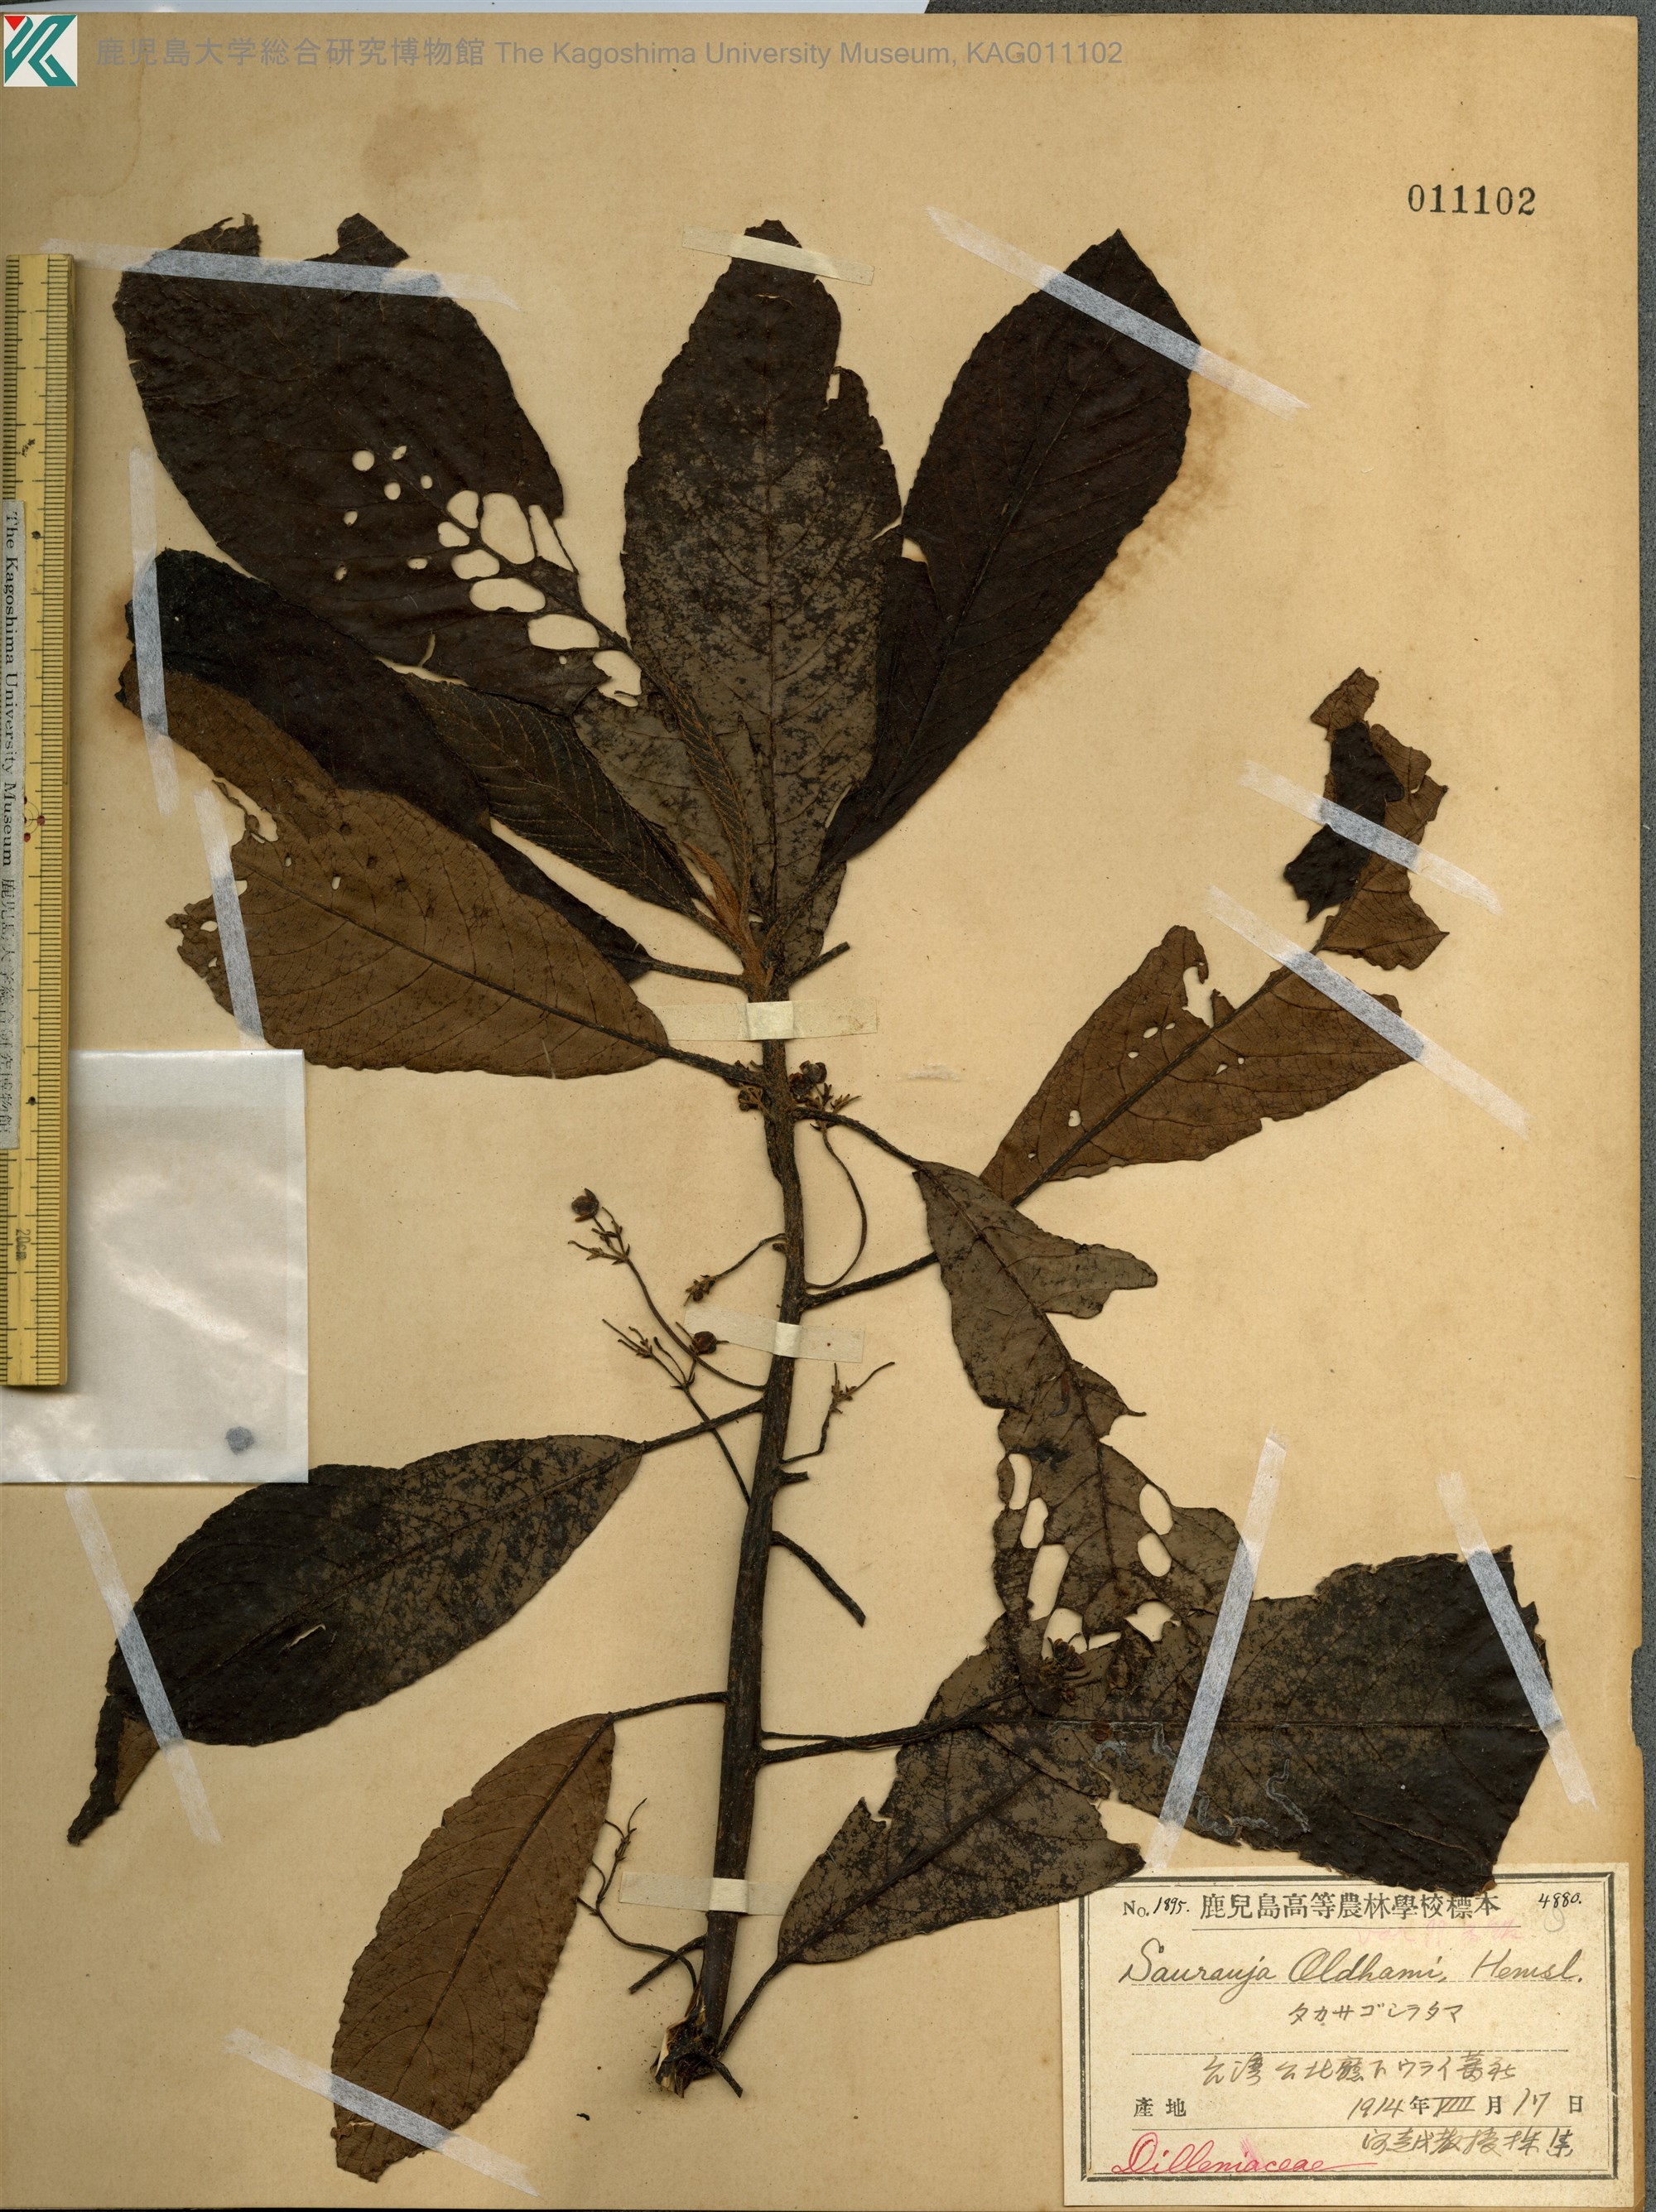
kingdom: Plantae
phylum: Tracheophyta
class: Magnoliopsida
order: Ericales
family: Actinidiaceae
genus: Saurauia
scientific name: Saurauia tristyla
